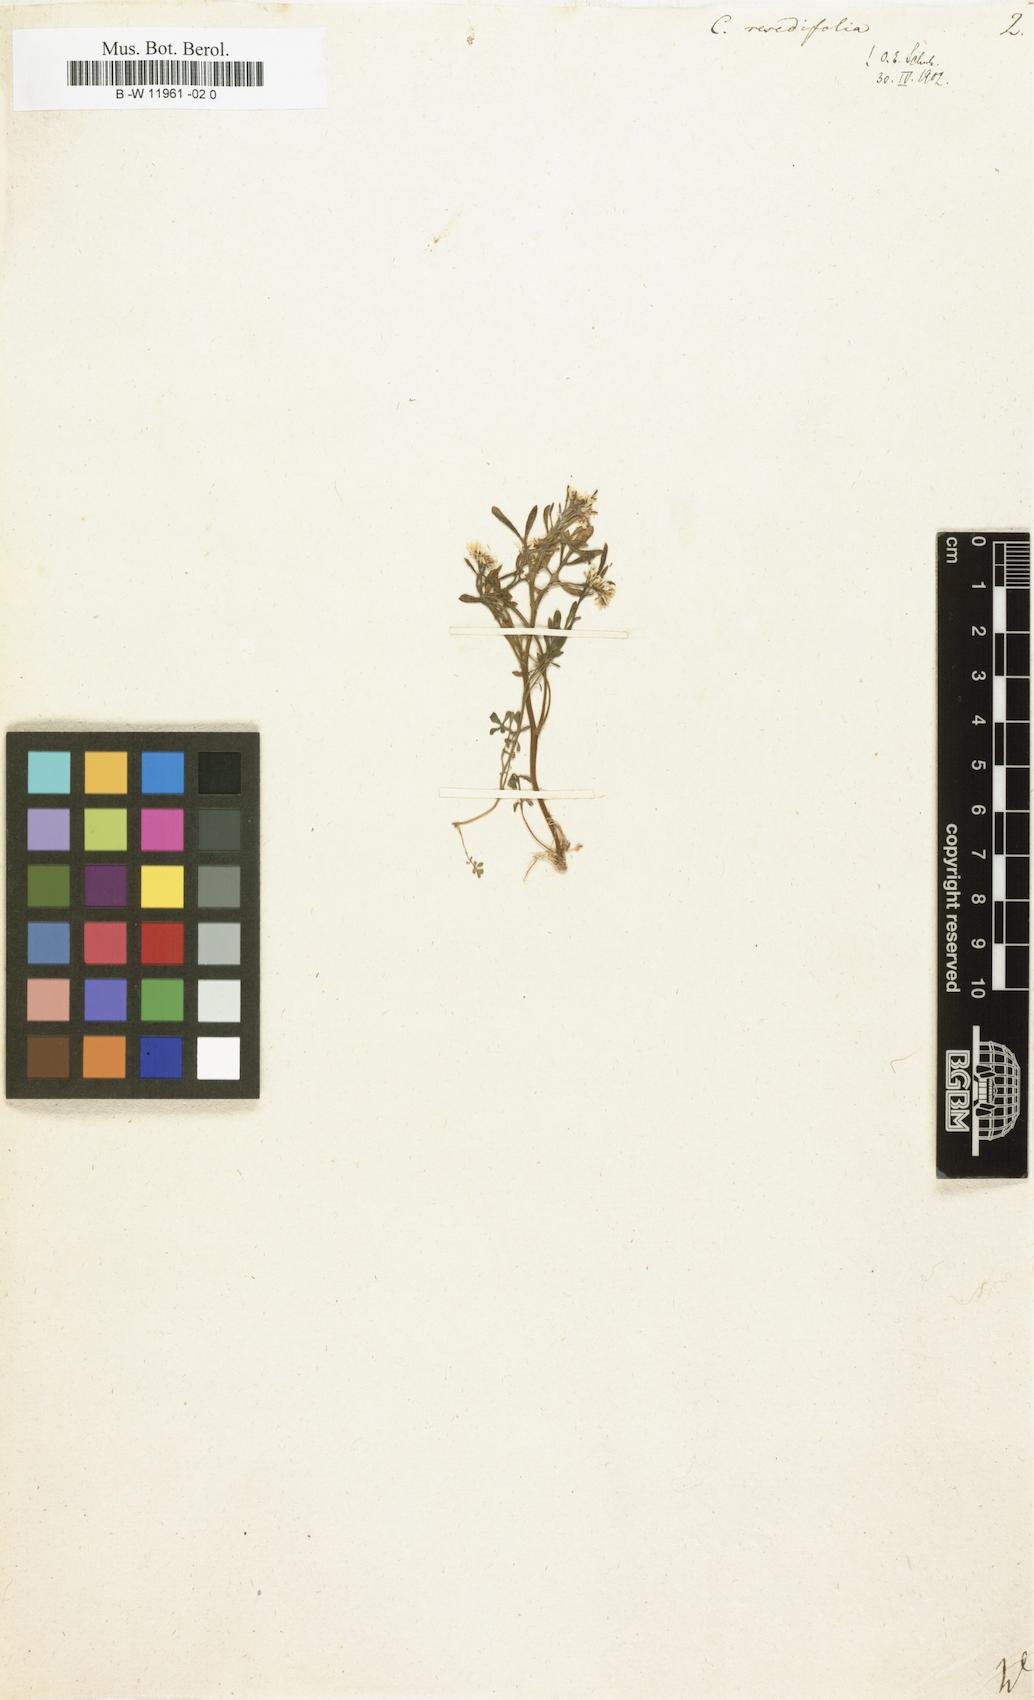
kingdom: Plantae
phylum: Tracheophyta
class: Magnoliopsida
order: Brassicales
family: Brassicaceae
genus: Cardamine
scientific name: Cardamine resedifolia
